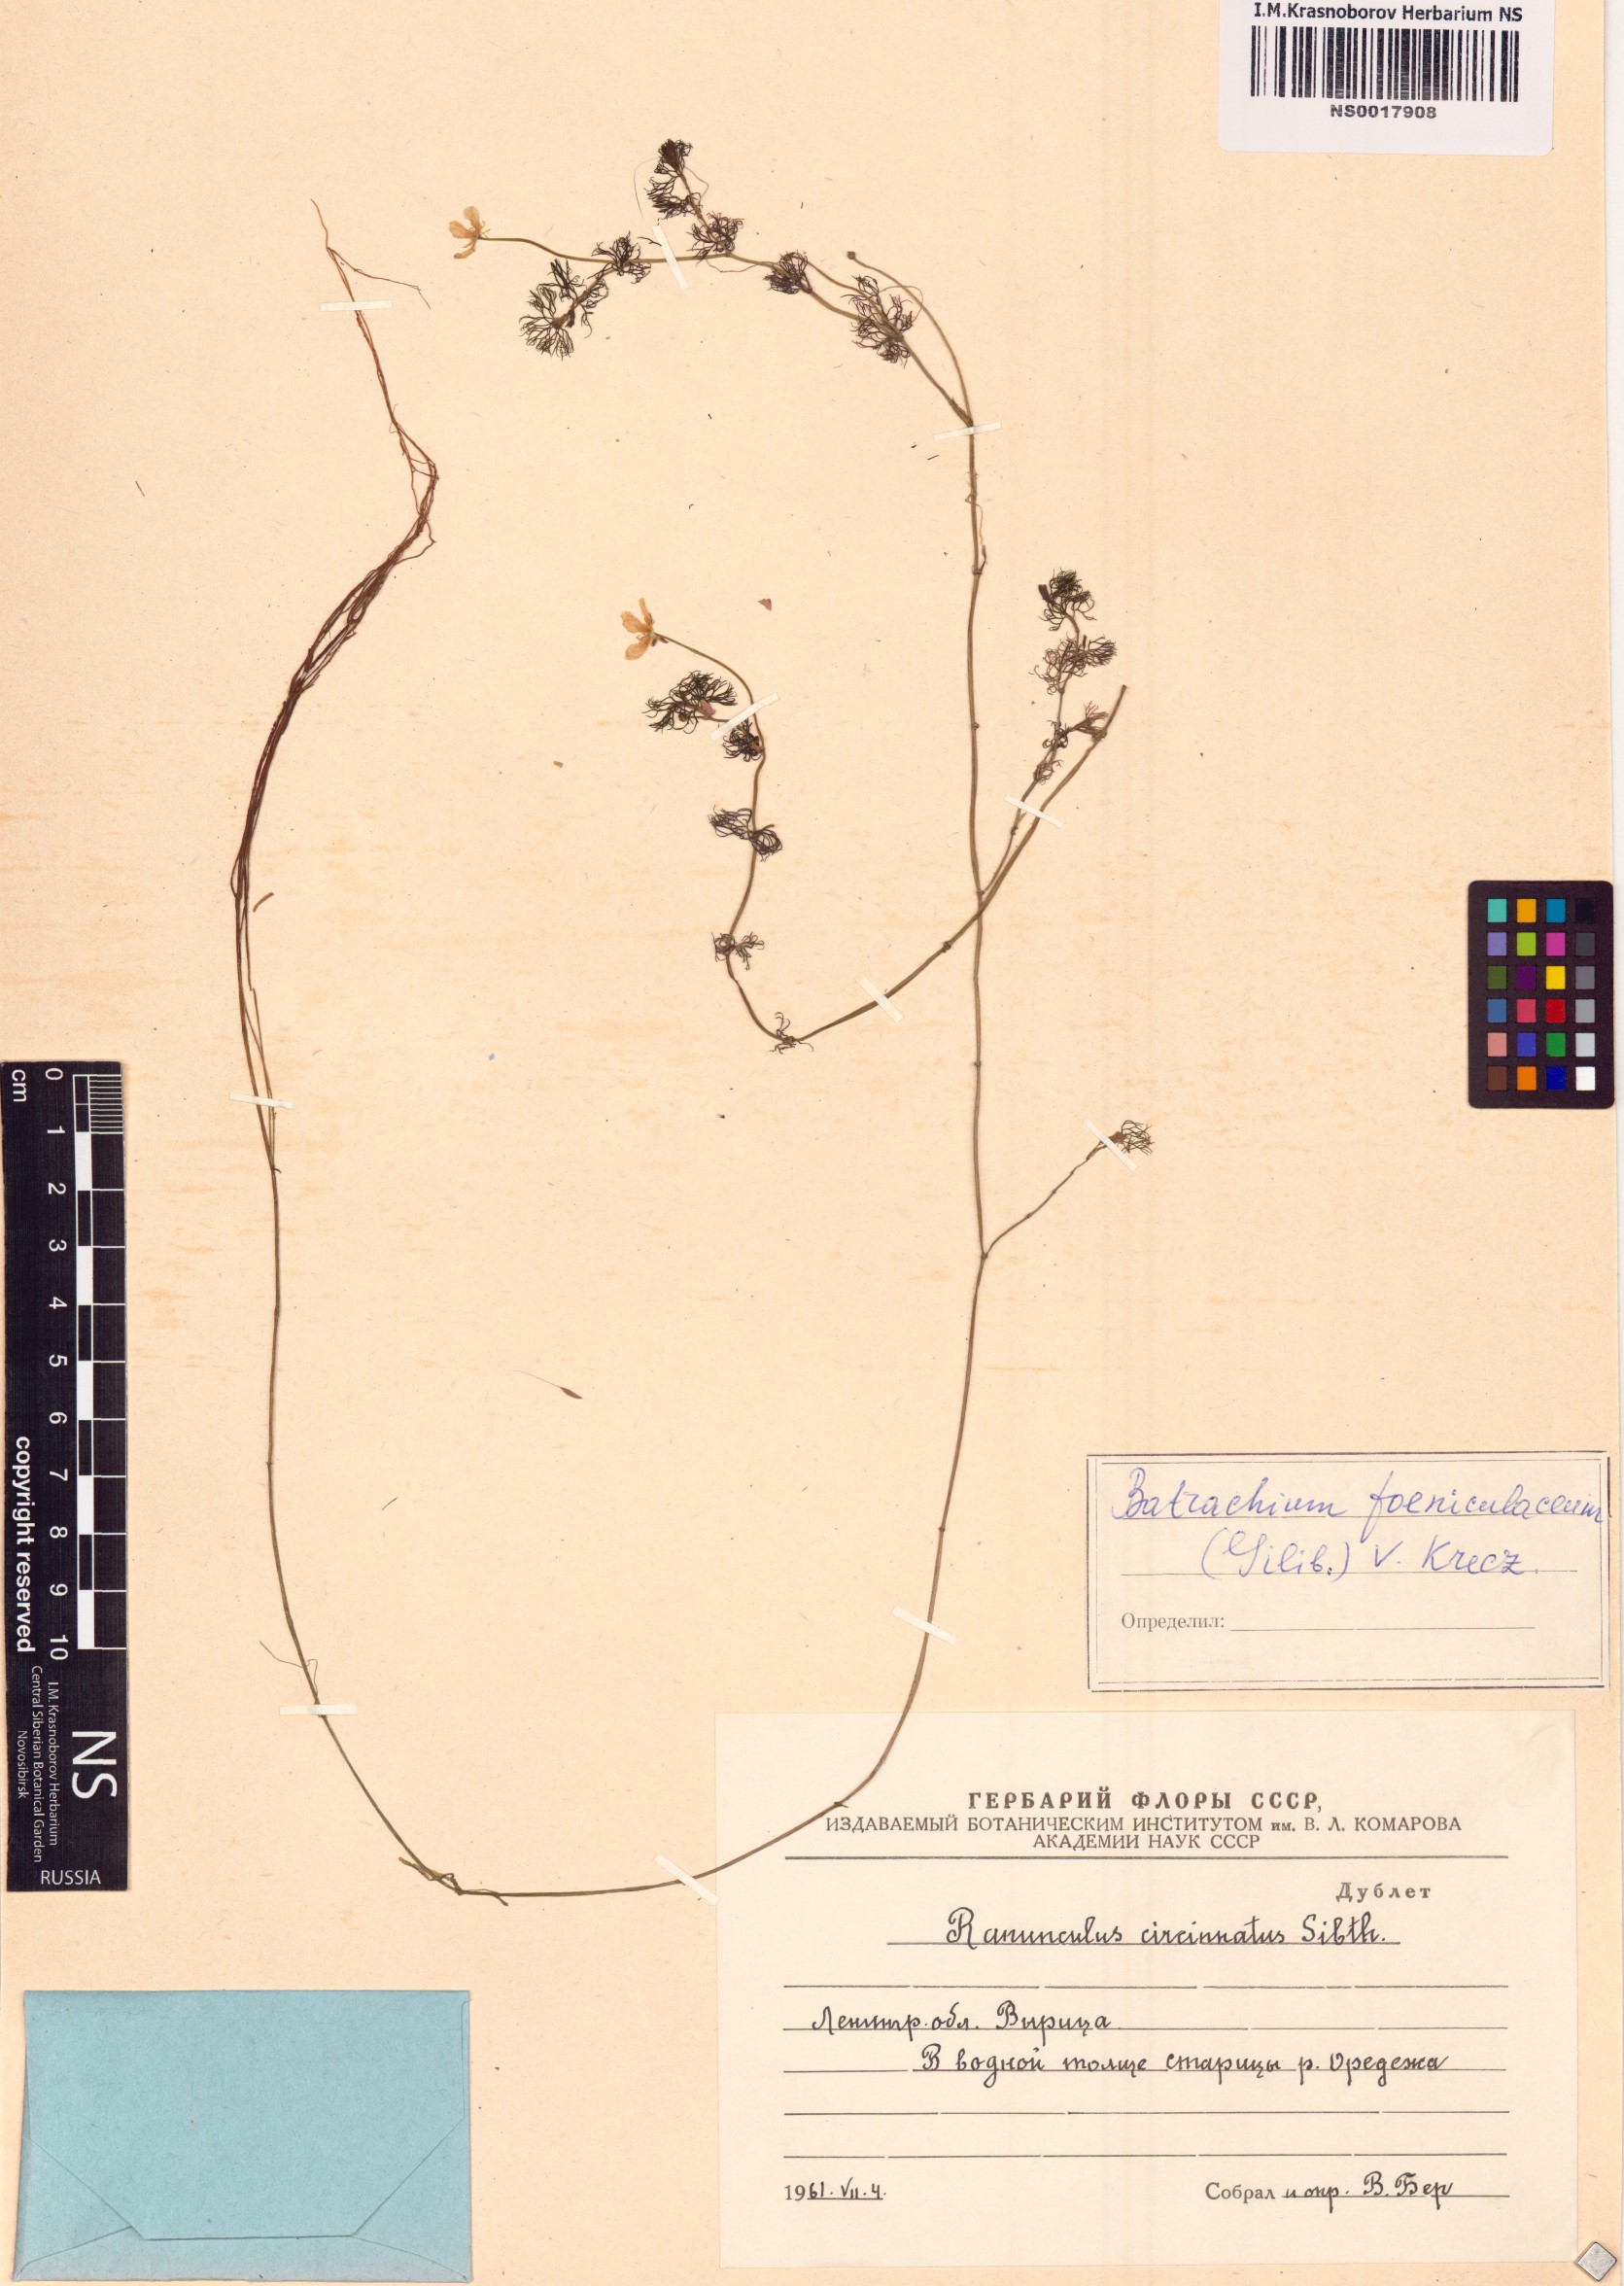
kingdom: Plantae
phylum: Tracheophyta
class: Magnoliopsida
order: Ranunculales
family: Ranunculaceae
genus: Ranunculus
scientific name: Ranunculus circinatus
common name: Fan-leaved water-crowfoot
